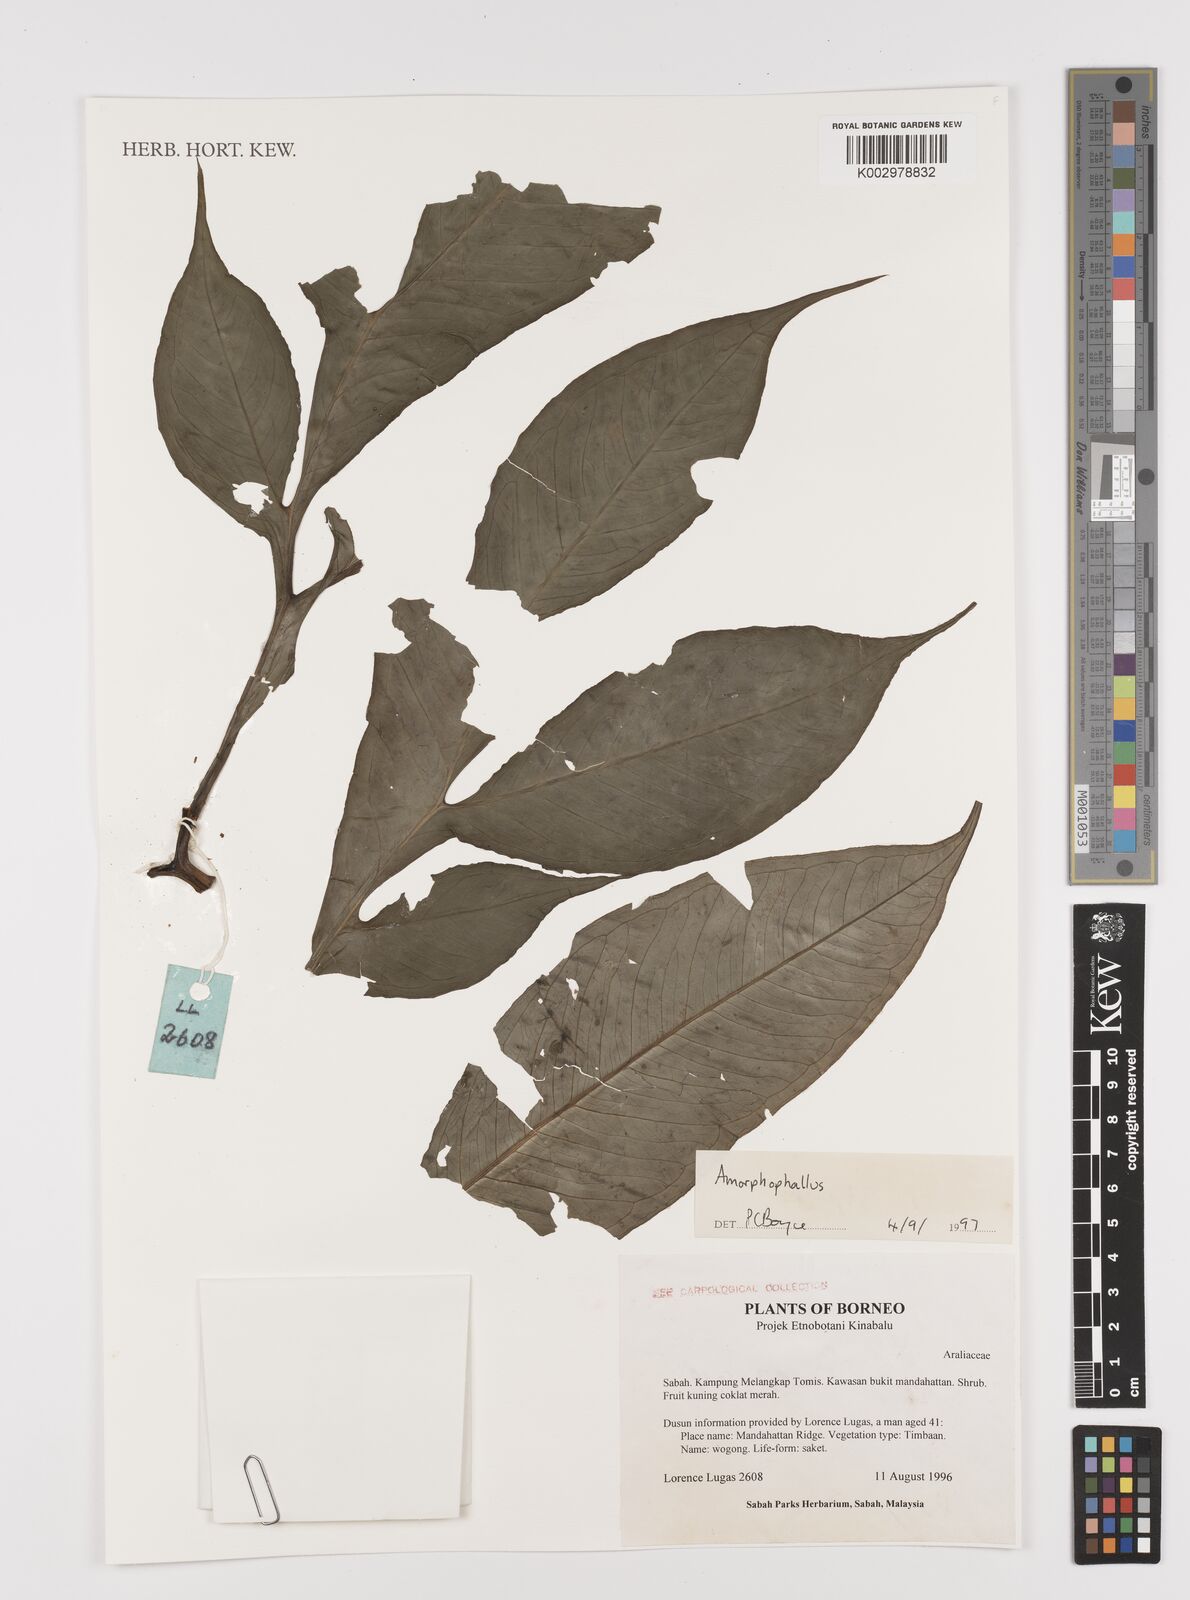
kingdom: Plantae
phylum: Tracheophyta
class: Liliopsida
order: Alismatales
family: Araceae
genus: Amorphophallus
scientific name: Amorphophallus
